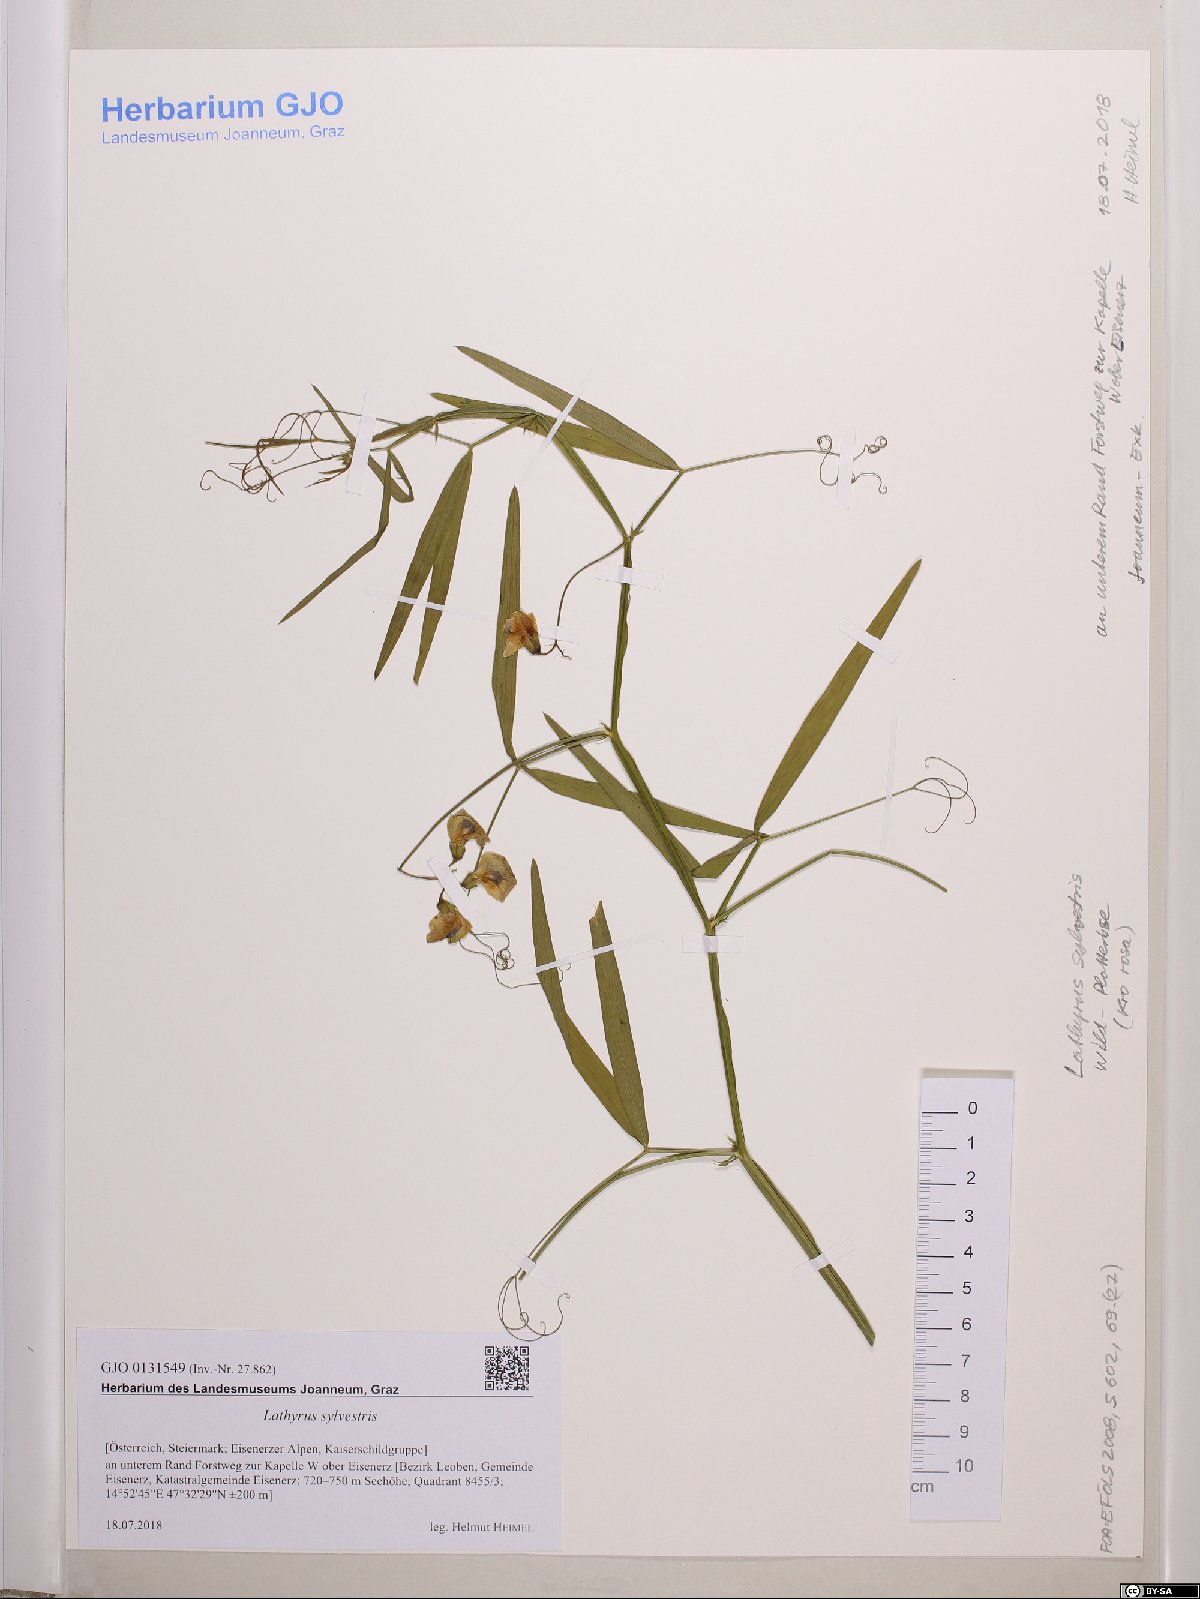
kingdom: Plantae
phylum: Tracheophyta
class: Magnoliopsida
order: Fabales
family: Fabaceae
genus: Lathyrus
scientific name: Lathyrus sylvestris
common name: Flat pea
